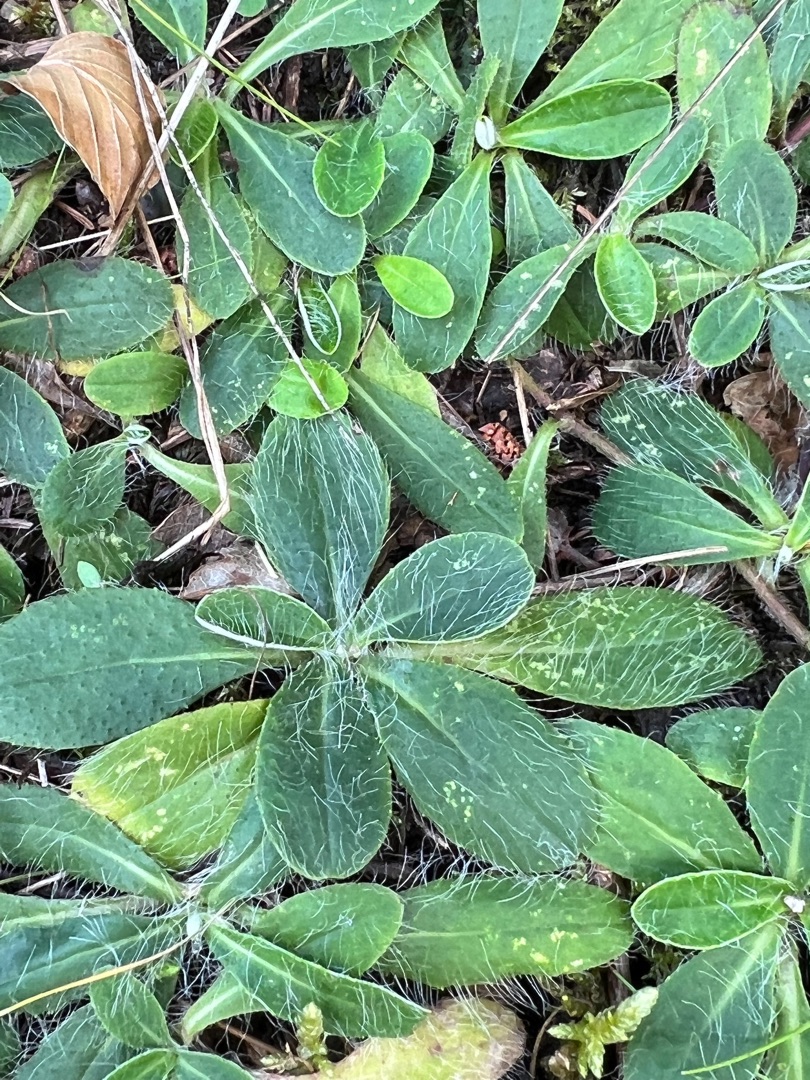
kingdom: Plantae
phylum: Tracheophyta
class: Magnoliopsida
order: Asterales
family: Asteraceae
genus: Pilosella
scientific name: Pilosella officinarum
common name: Håret høgeurt
